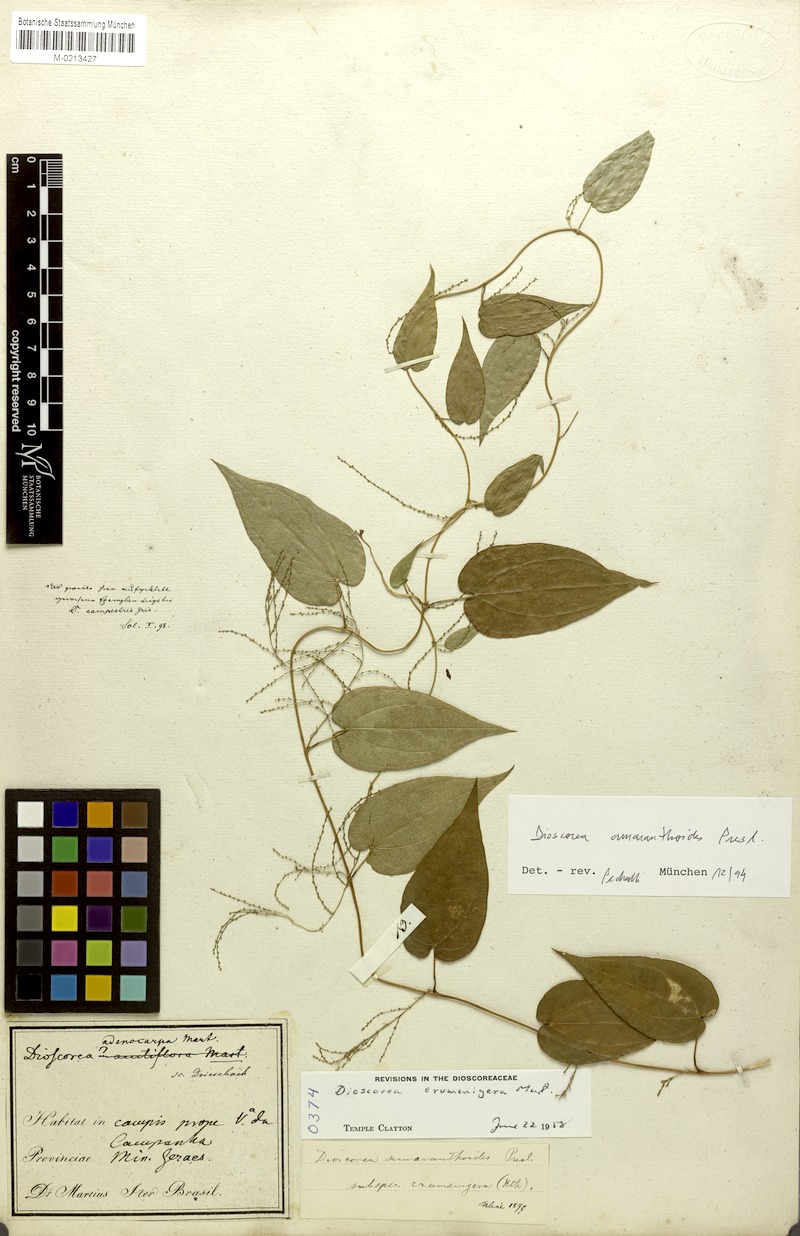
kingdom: Plantae
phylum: Tracheophyta
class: Liliopsida
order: Dioscoreales
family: Dioscoreaceae
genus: Dioscorea
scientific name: Dioscorea ovata
